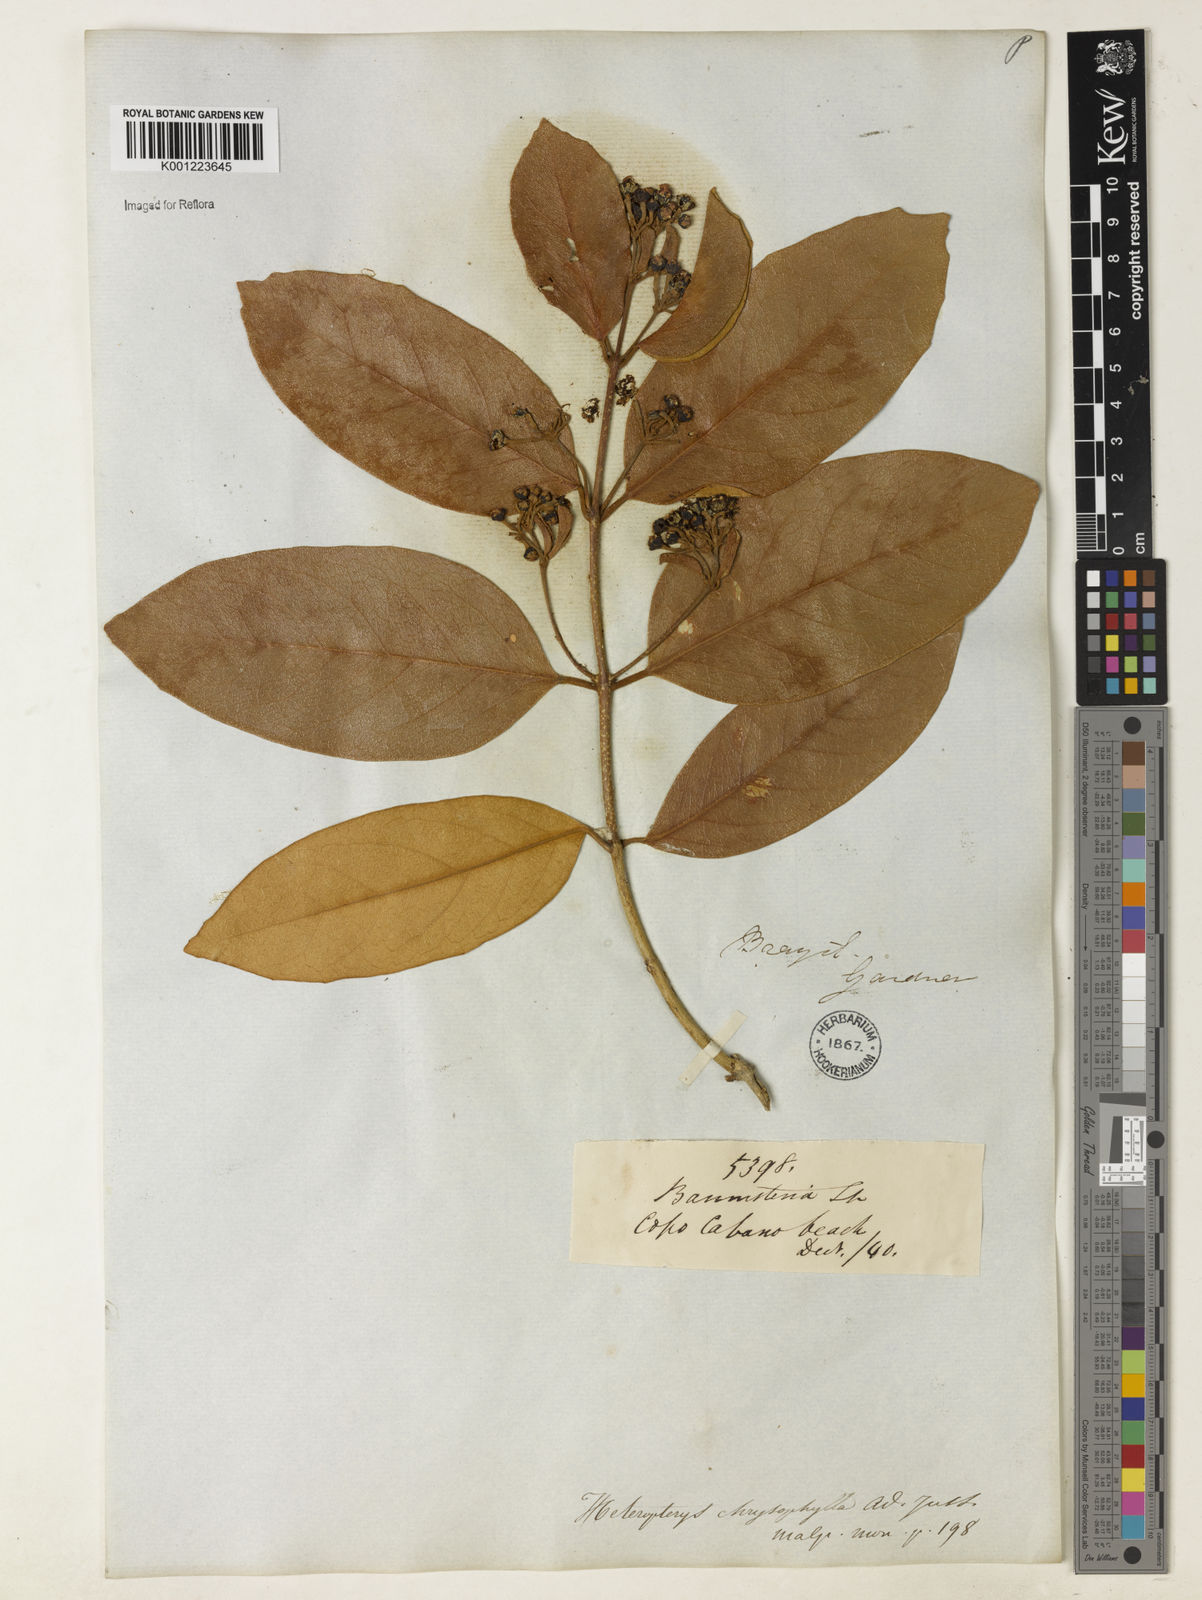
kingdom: Plantae
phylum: Tracheophyta
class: Magnoliopsida
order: Malpighiales
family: Malpighiaceae
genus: Heteropterys
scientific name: Heteropterys chrysophylla
